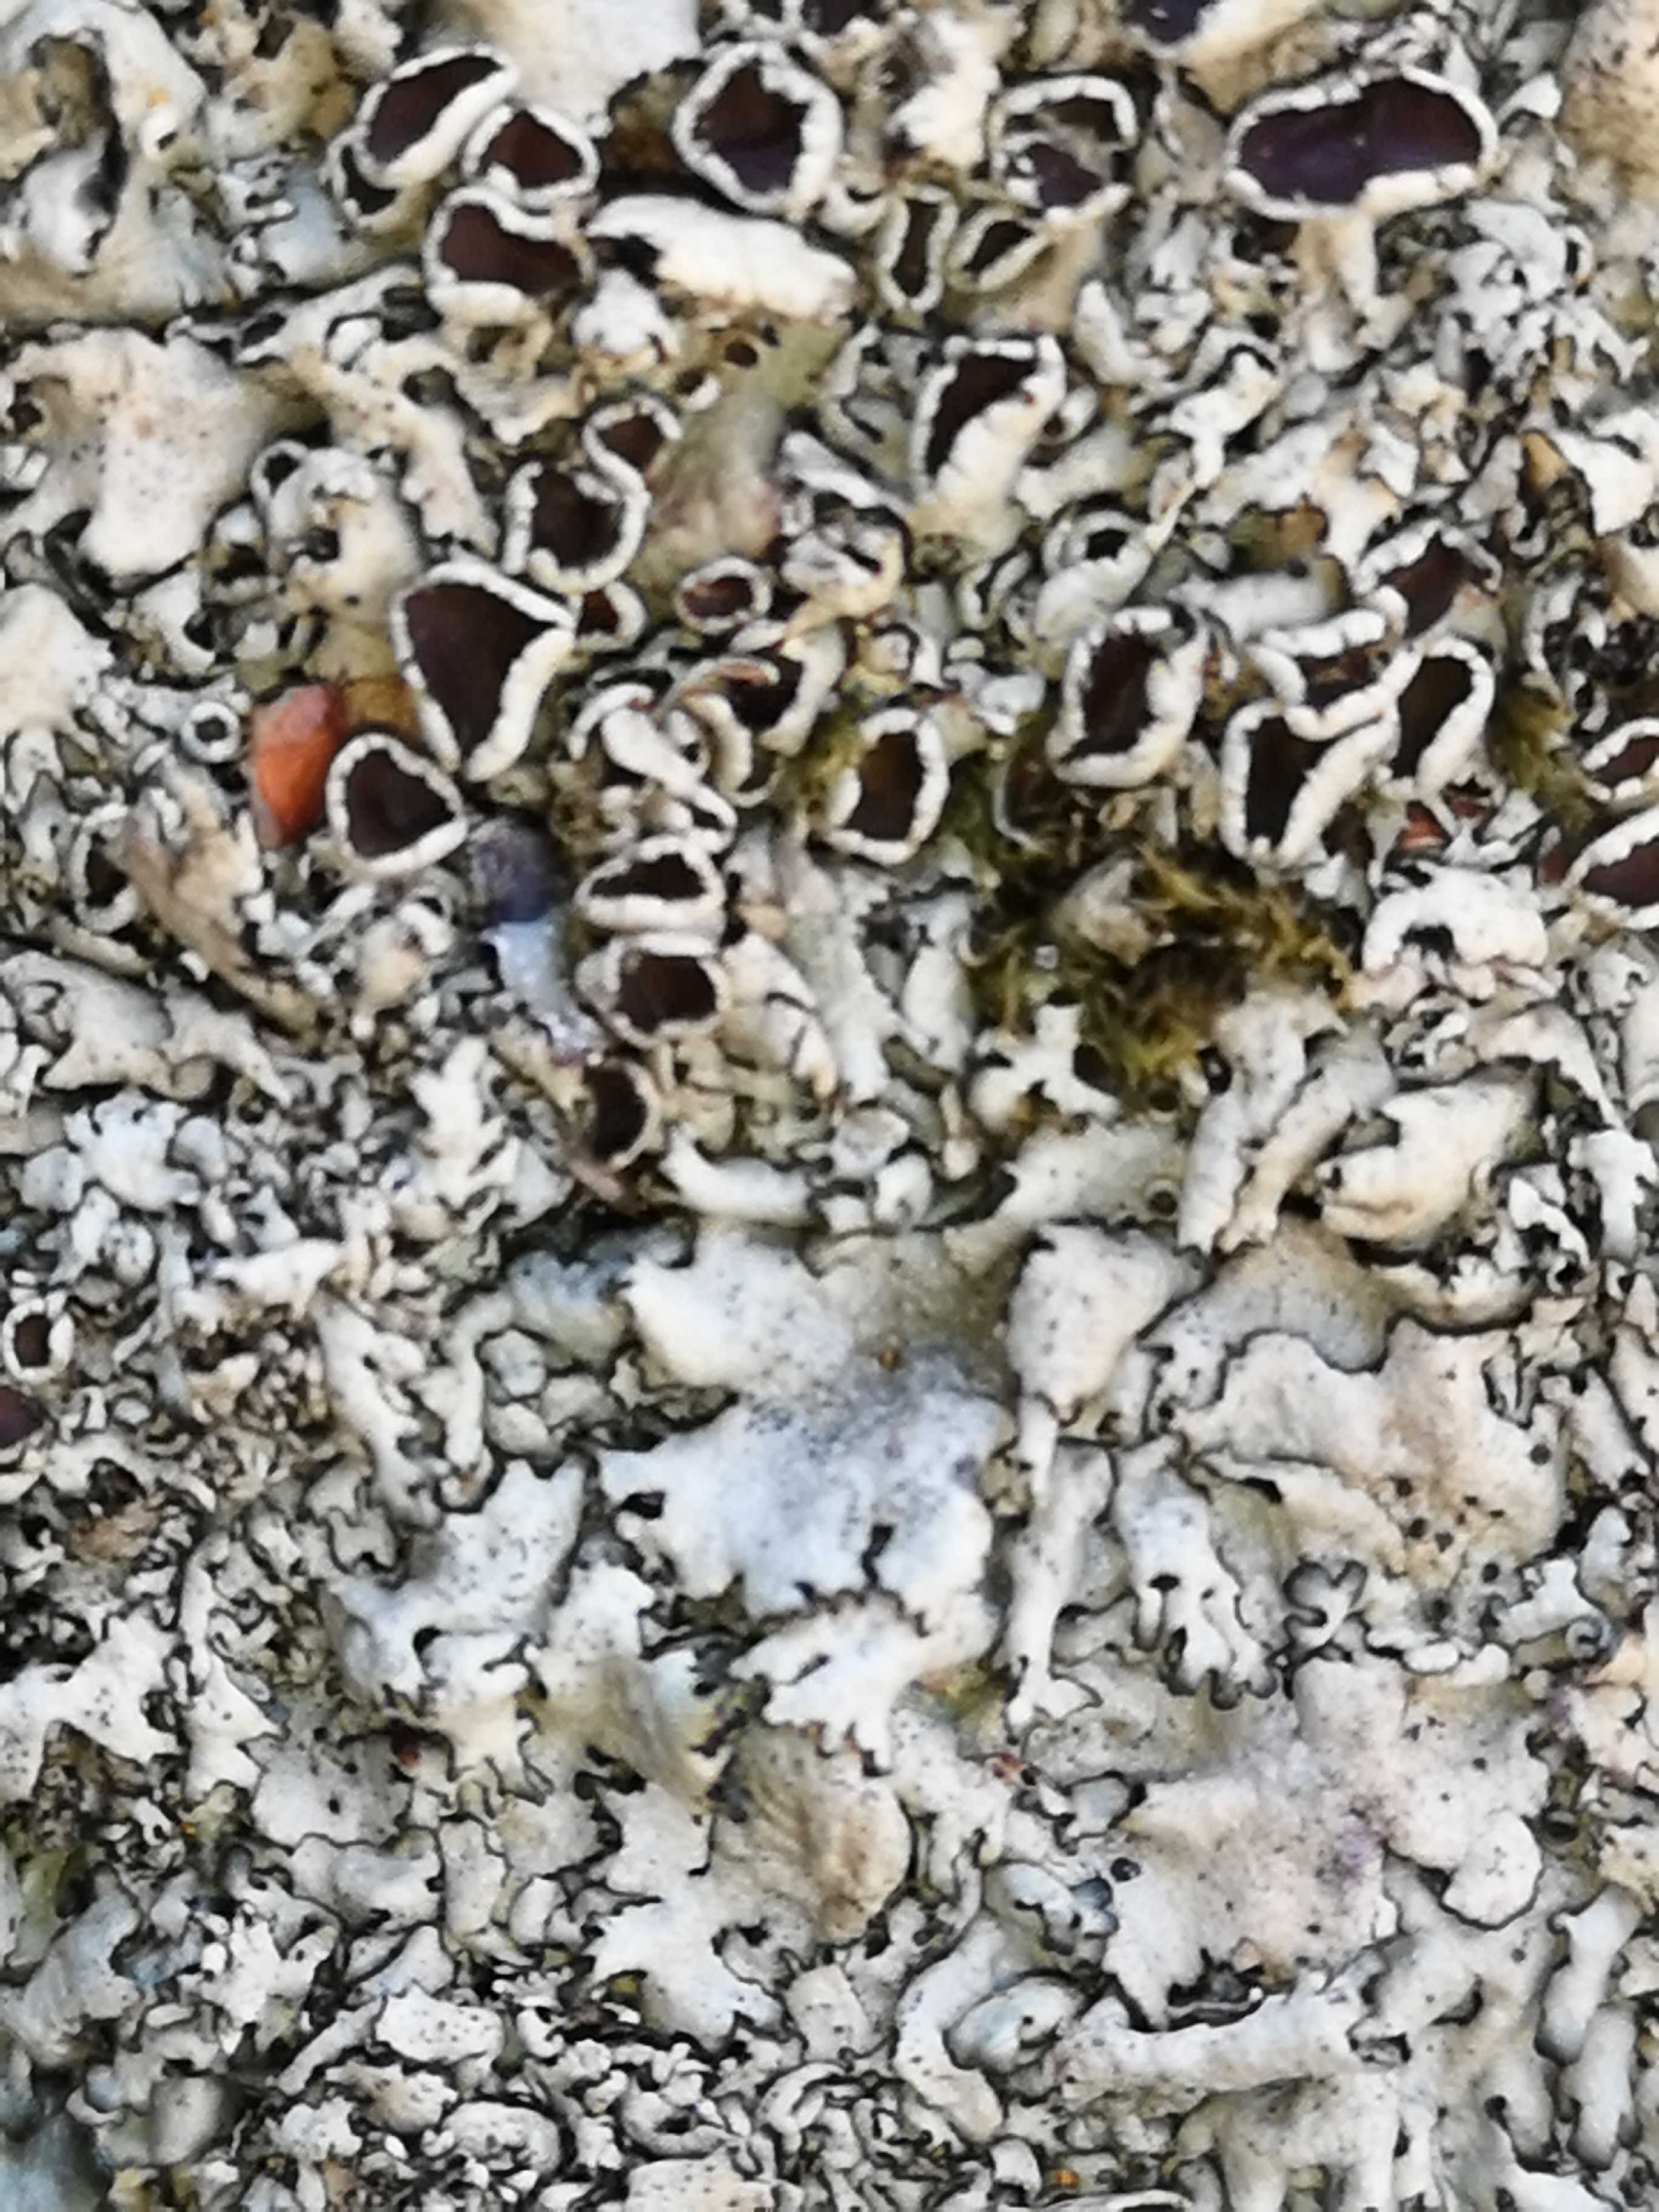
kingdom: Fungi
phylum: Ascomycota
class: Lecanoromycetes
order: Lecanorales
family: Parmeliaceae
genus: Xanthoparmelia
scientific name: Xanthoparmelia stenophylla
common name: Shingled rock shield
